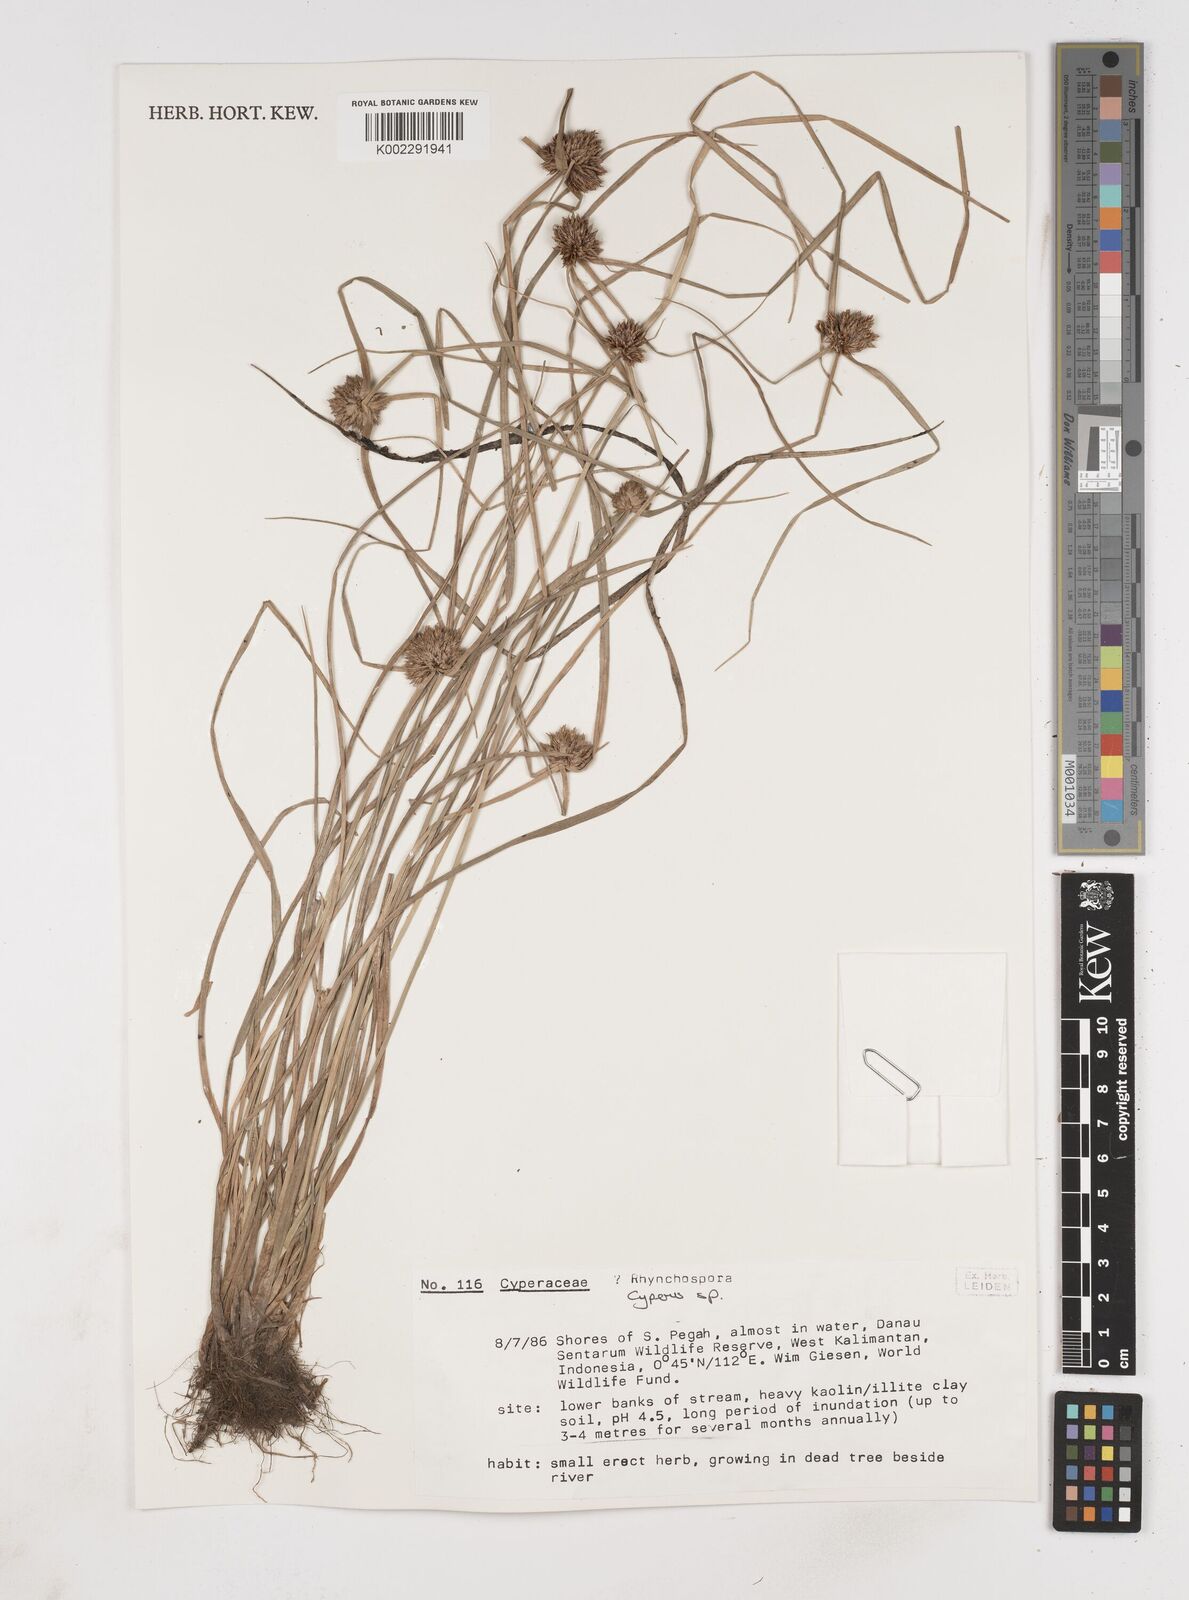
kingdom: Plantae
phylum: Tracheophyta
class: Liliopsida
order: Poales
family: Cyperaceae
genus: Cyperus
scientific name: Cyperus
